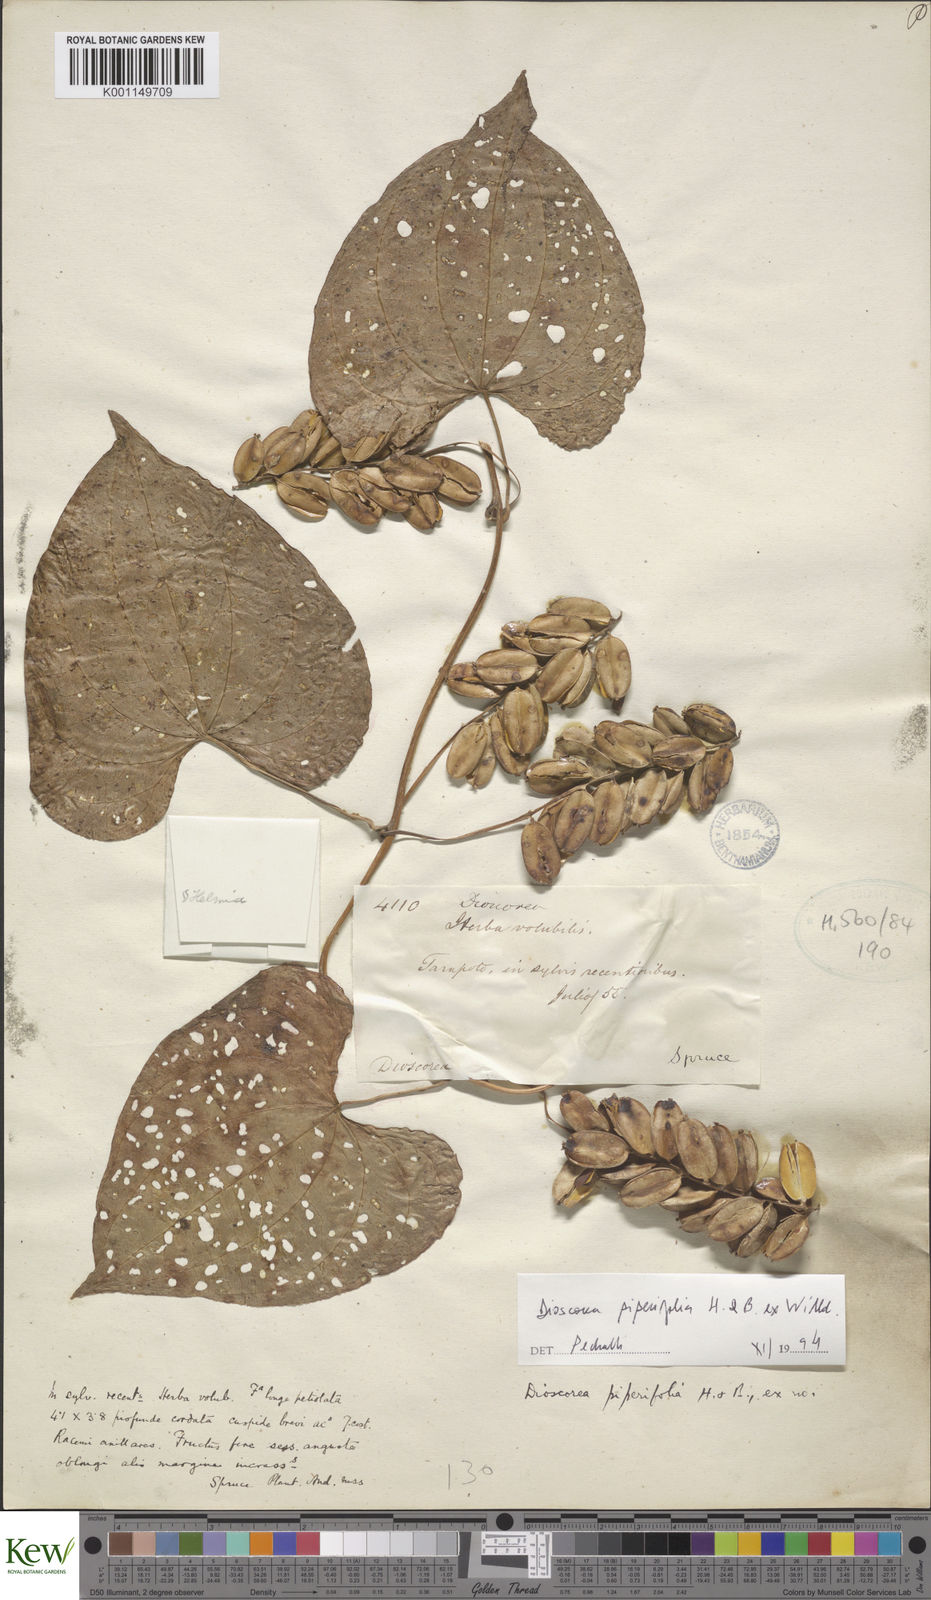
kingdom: Plantae
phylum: Tracheophyta
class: Liliopsida
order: Dioscoreales
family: Dioscoreaceae
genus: Dioscorea
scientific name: Dioscorea piperifolia
